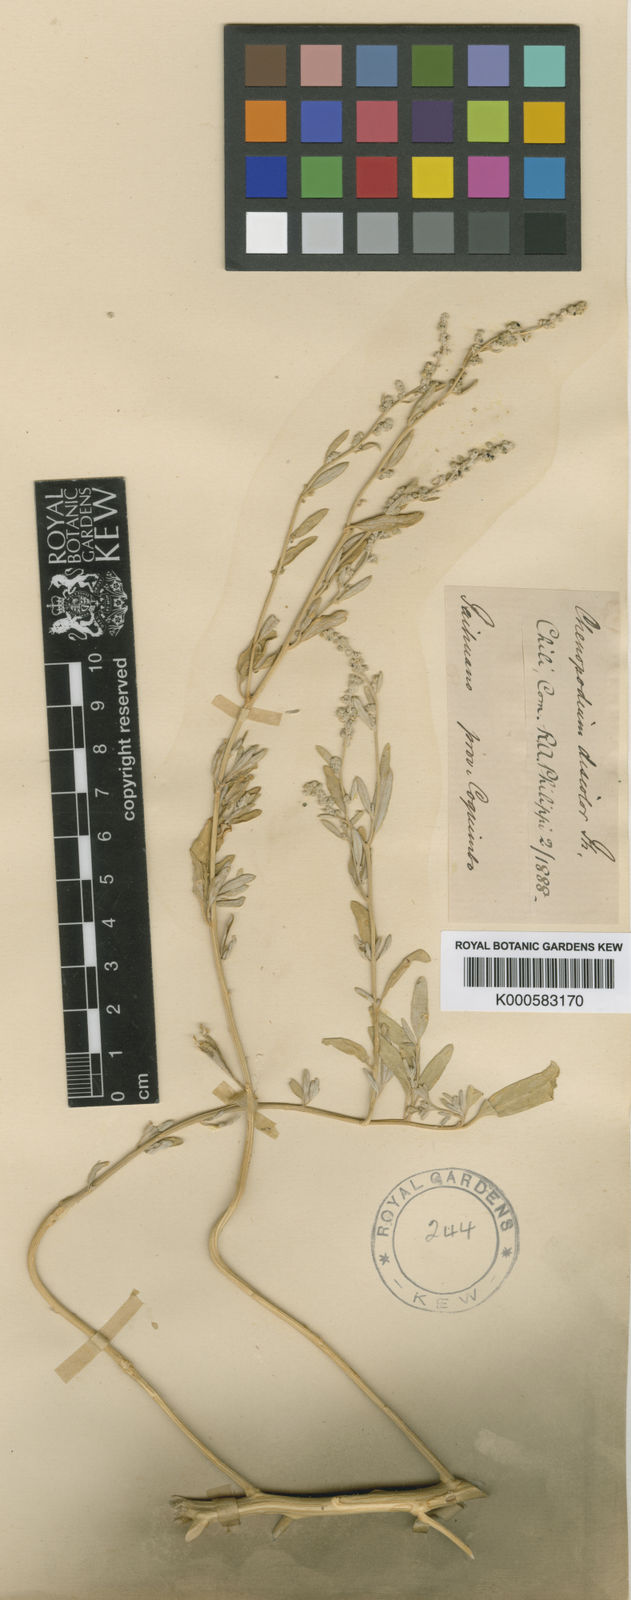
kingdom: Plantae
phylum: Tracheophyta
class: Magnoliopsida
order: Caryophyllales
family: Amaranthaceae
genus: Chenopodium
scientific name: Chenopodium
